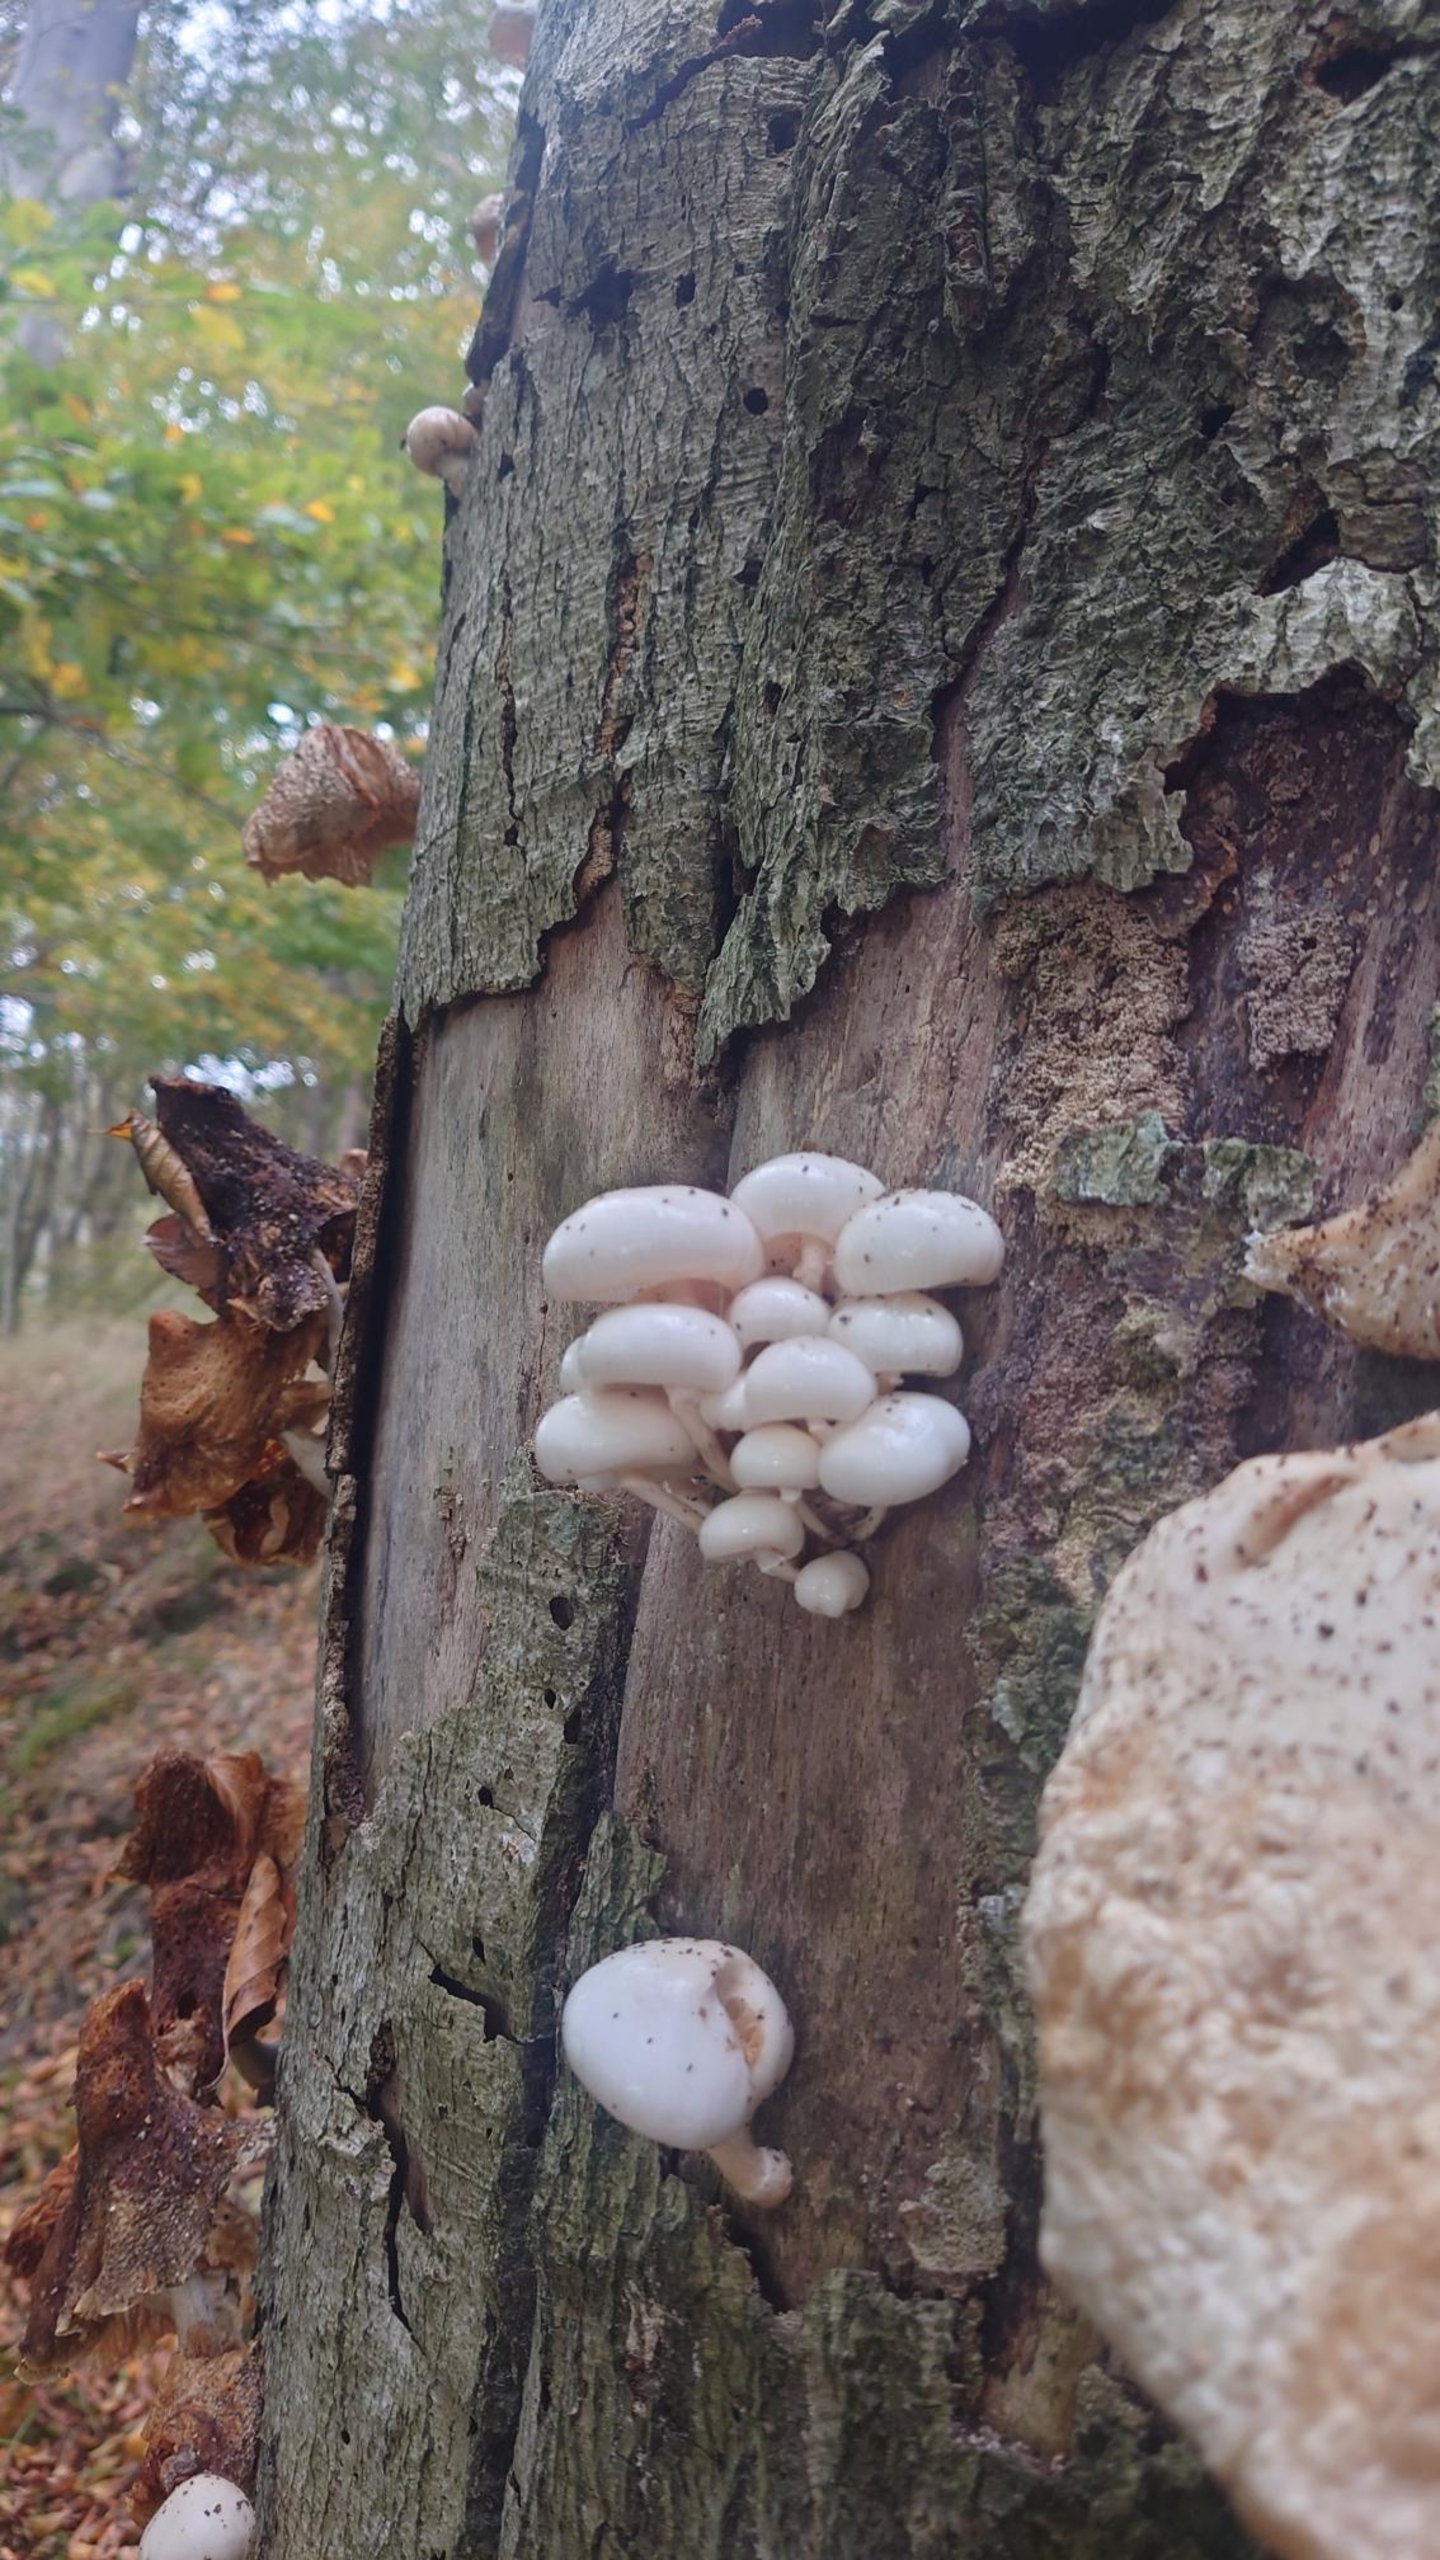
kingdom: Fungi
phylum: Basidiomycota
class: Agaricomycetes
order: Agaricales
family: Physalacriaceae
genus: Mucidula
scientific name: Mucidula
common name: Porcelænshat
